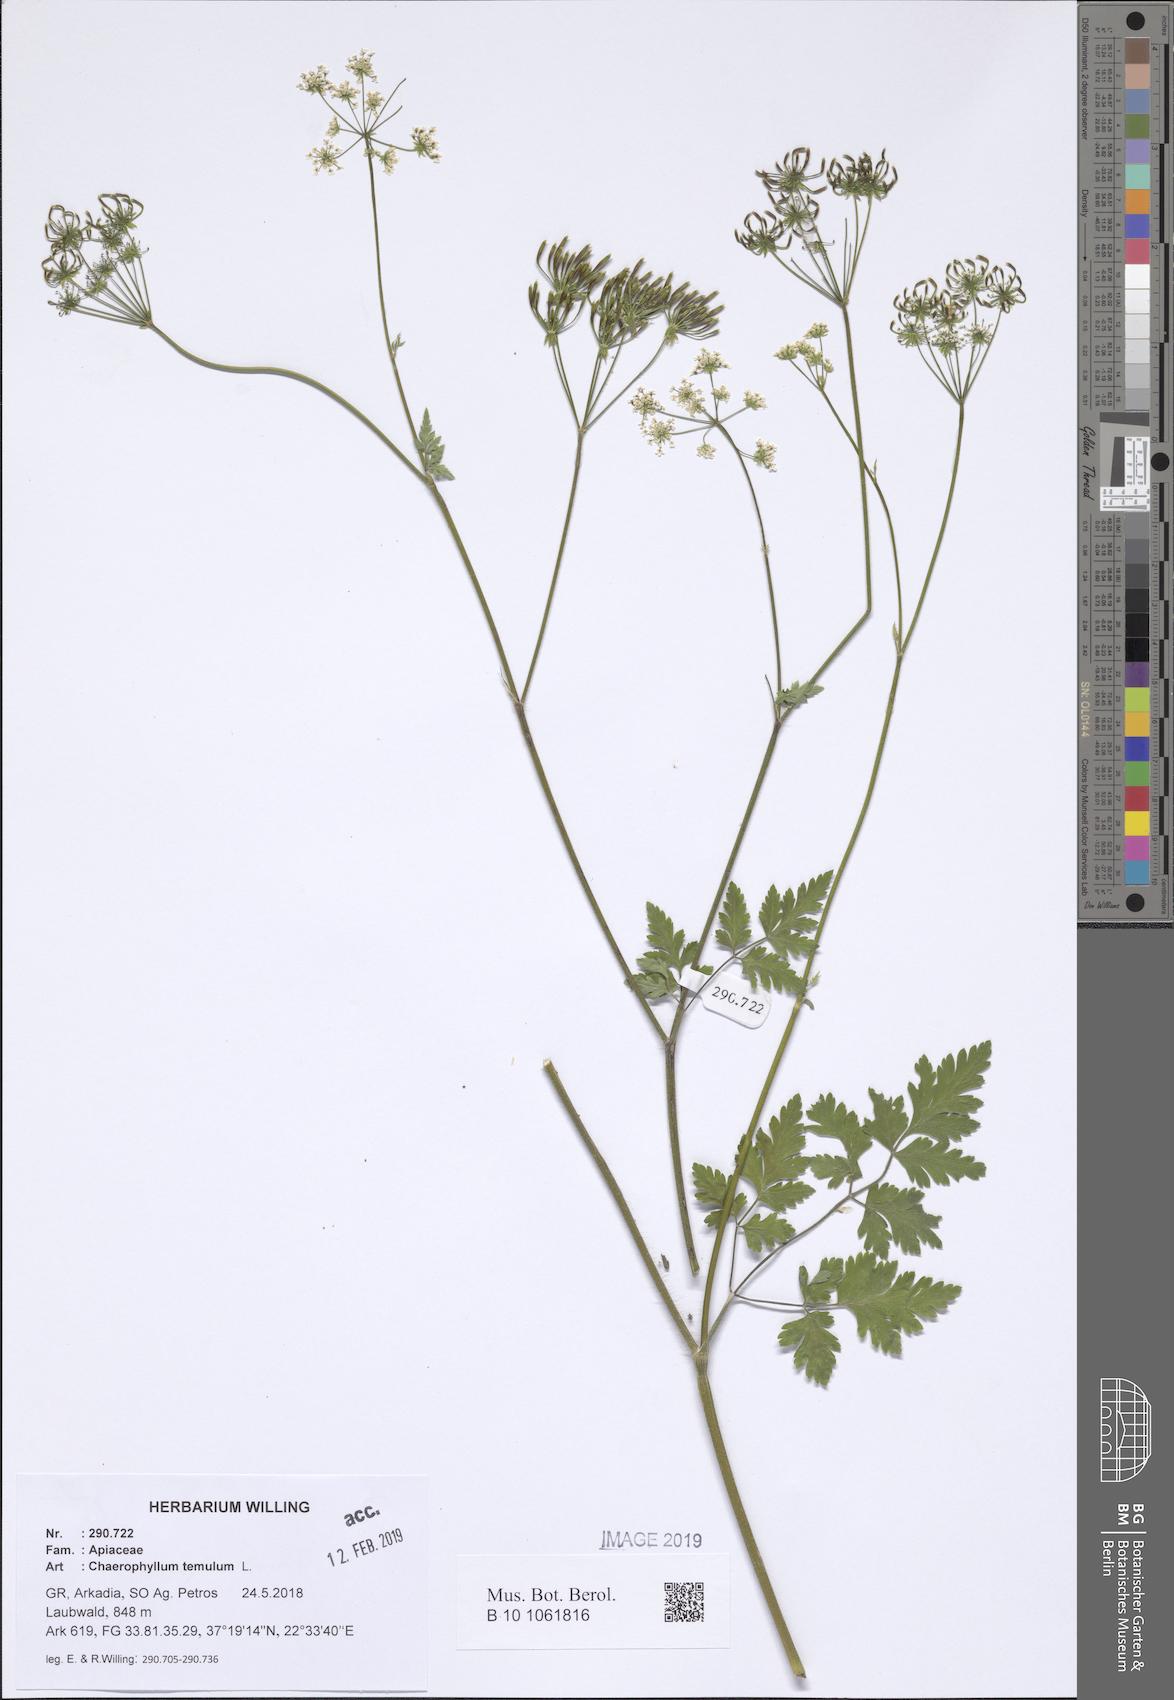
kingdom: Plantae
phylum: Tracheophyta
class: Magnoliopsida
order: Apiales
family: Apiaceae
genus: Chaerophyllum
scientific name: Chaerophyllum temulum
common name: Rough chervil
